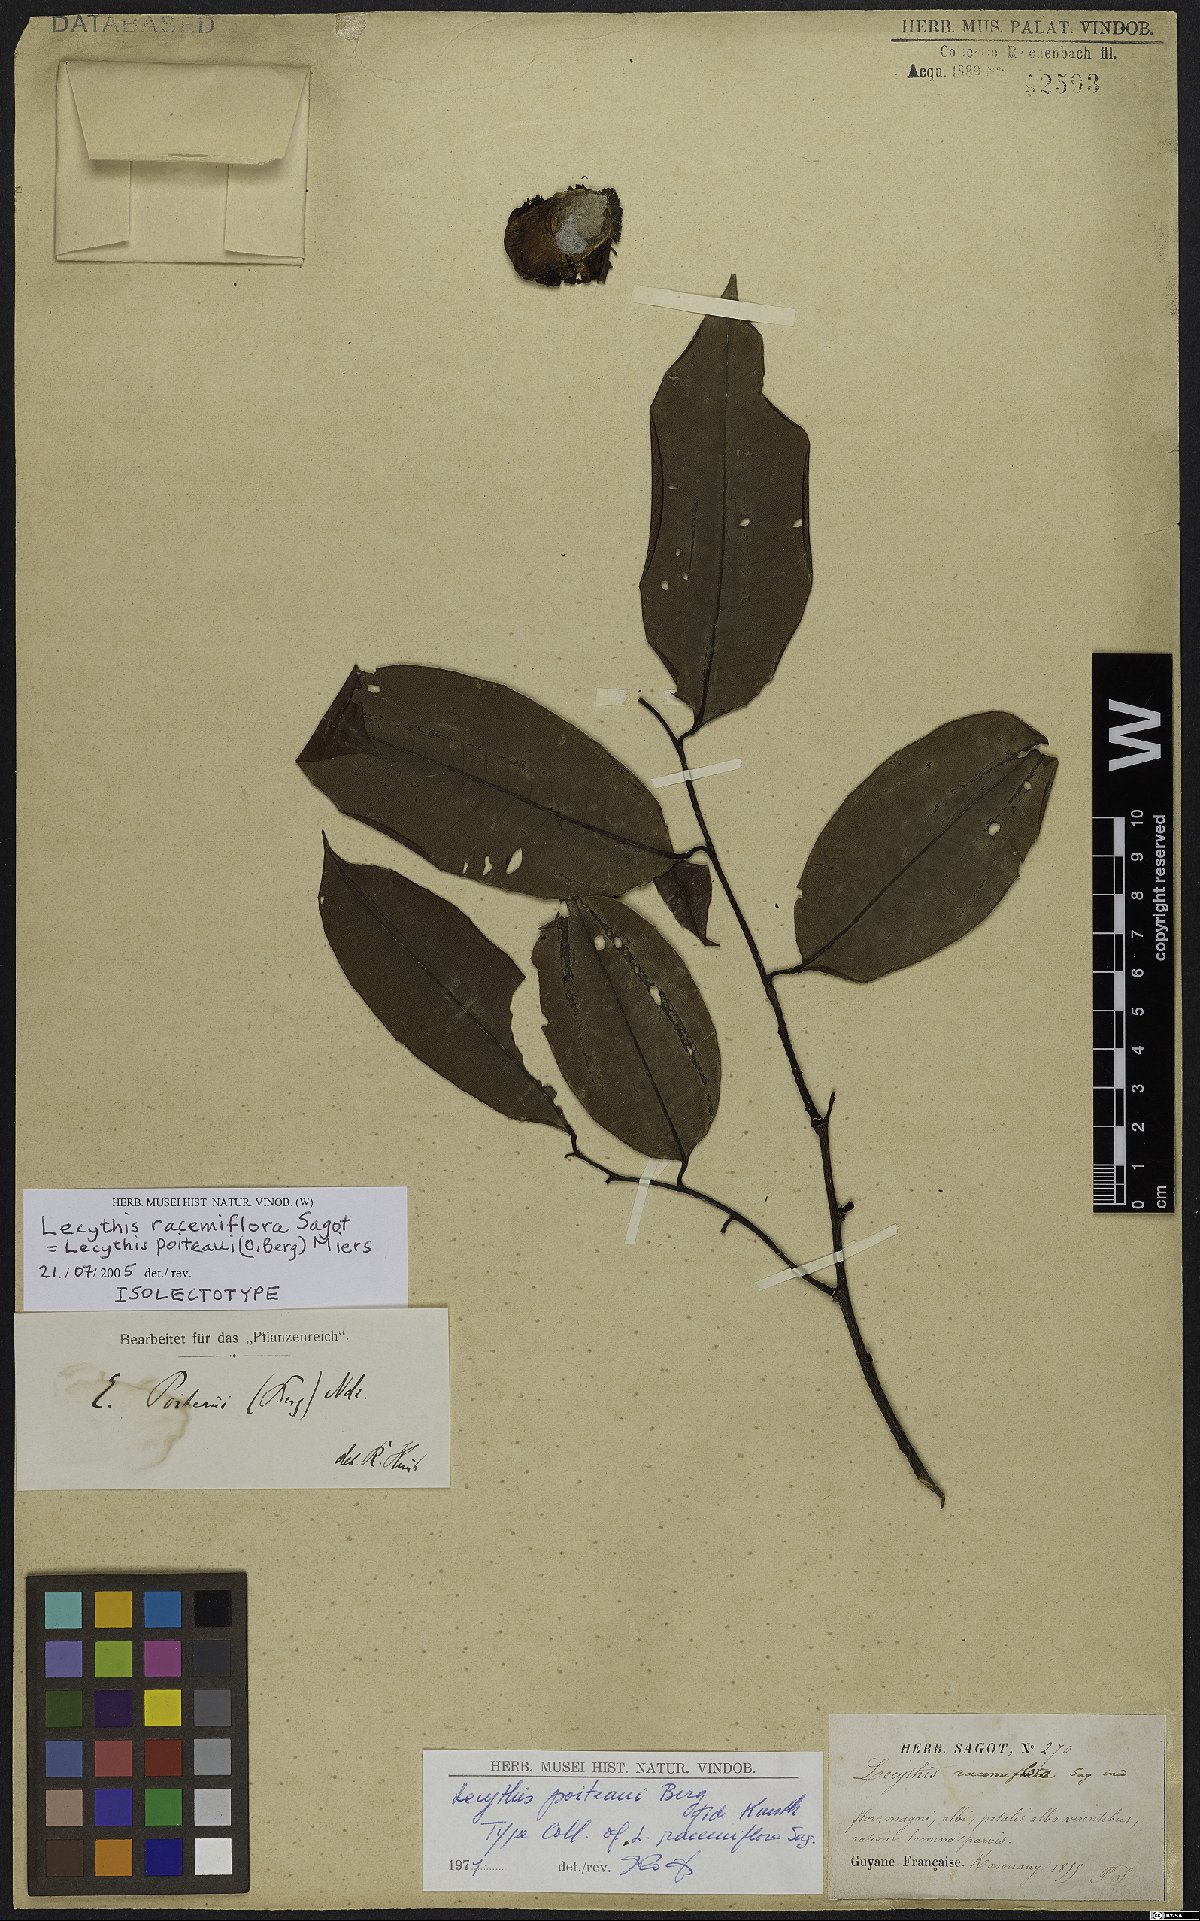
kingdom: Plantae
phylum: Tracheophyta
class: Magnoliopsida
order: Ericales
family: Lecythidaceae
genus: Lecythis
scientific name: Lecythis poiteaui
